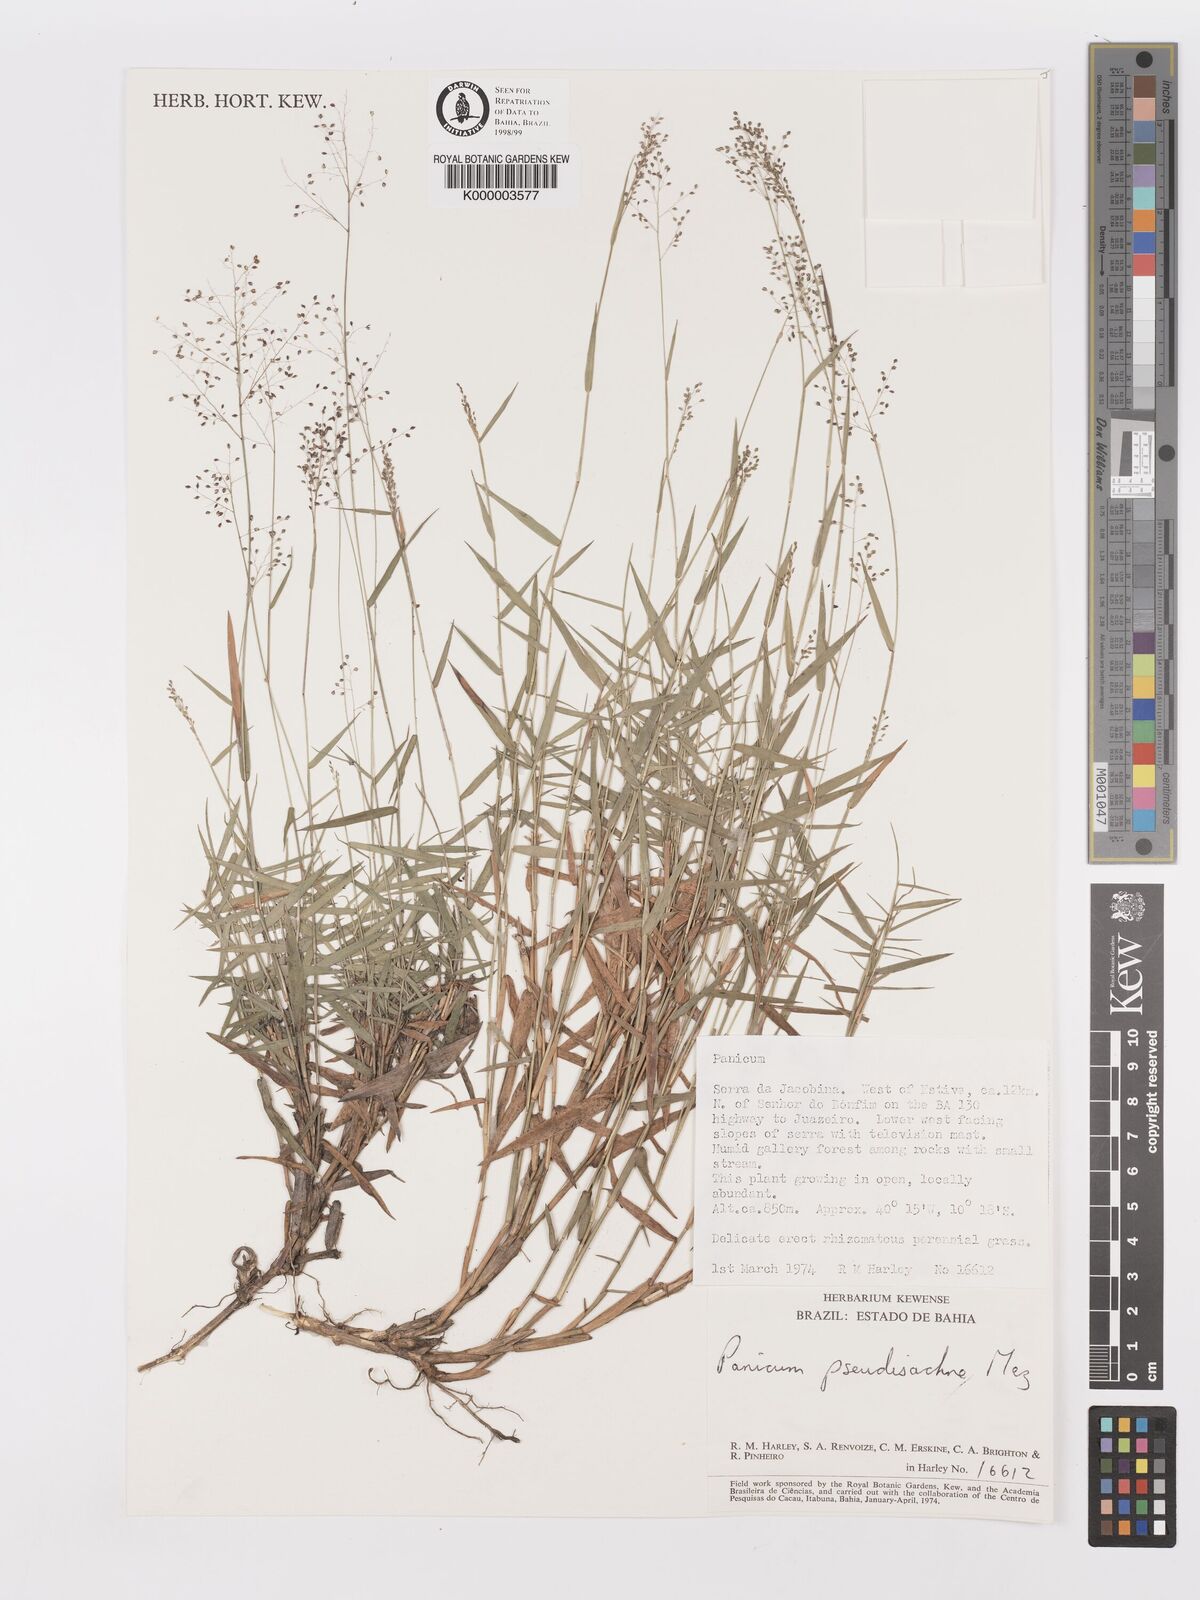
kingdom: Plantae
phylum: Tracheophyta
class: Liliopsida
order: Poales
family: Poaceae
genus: Trichanthecium
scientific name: Trichanthecium pseudisachne
